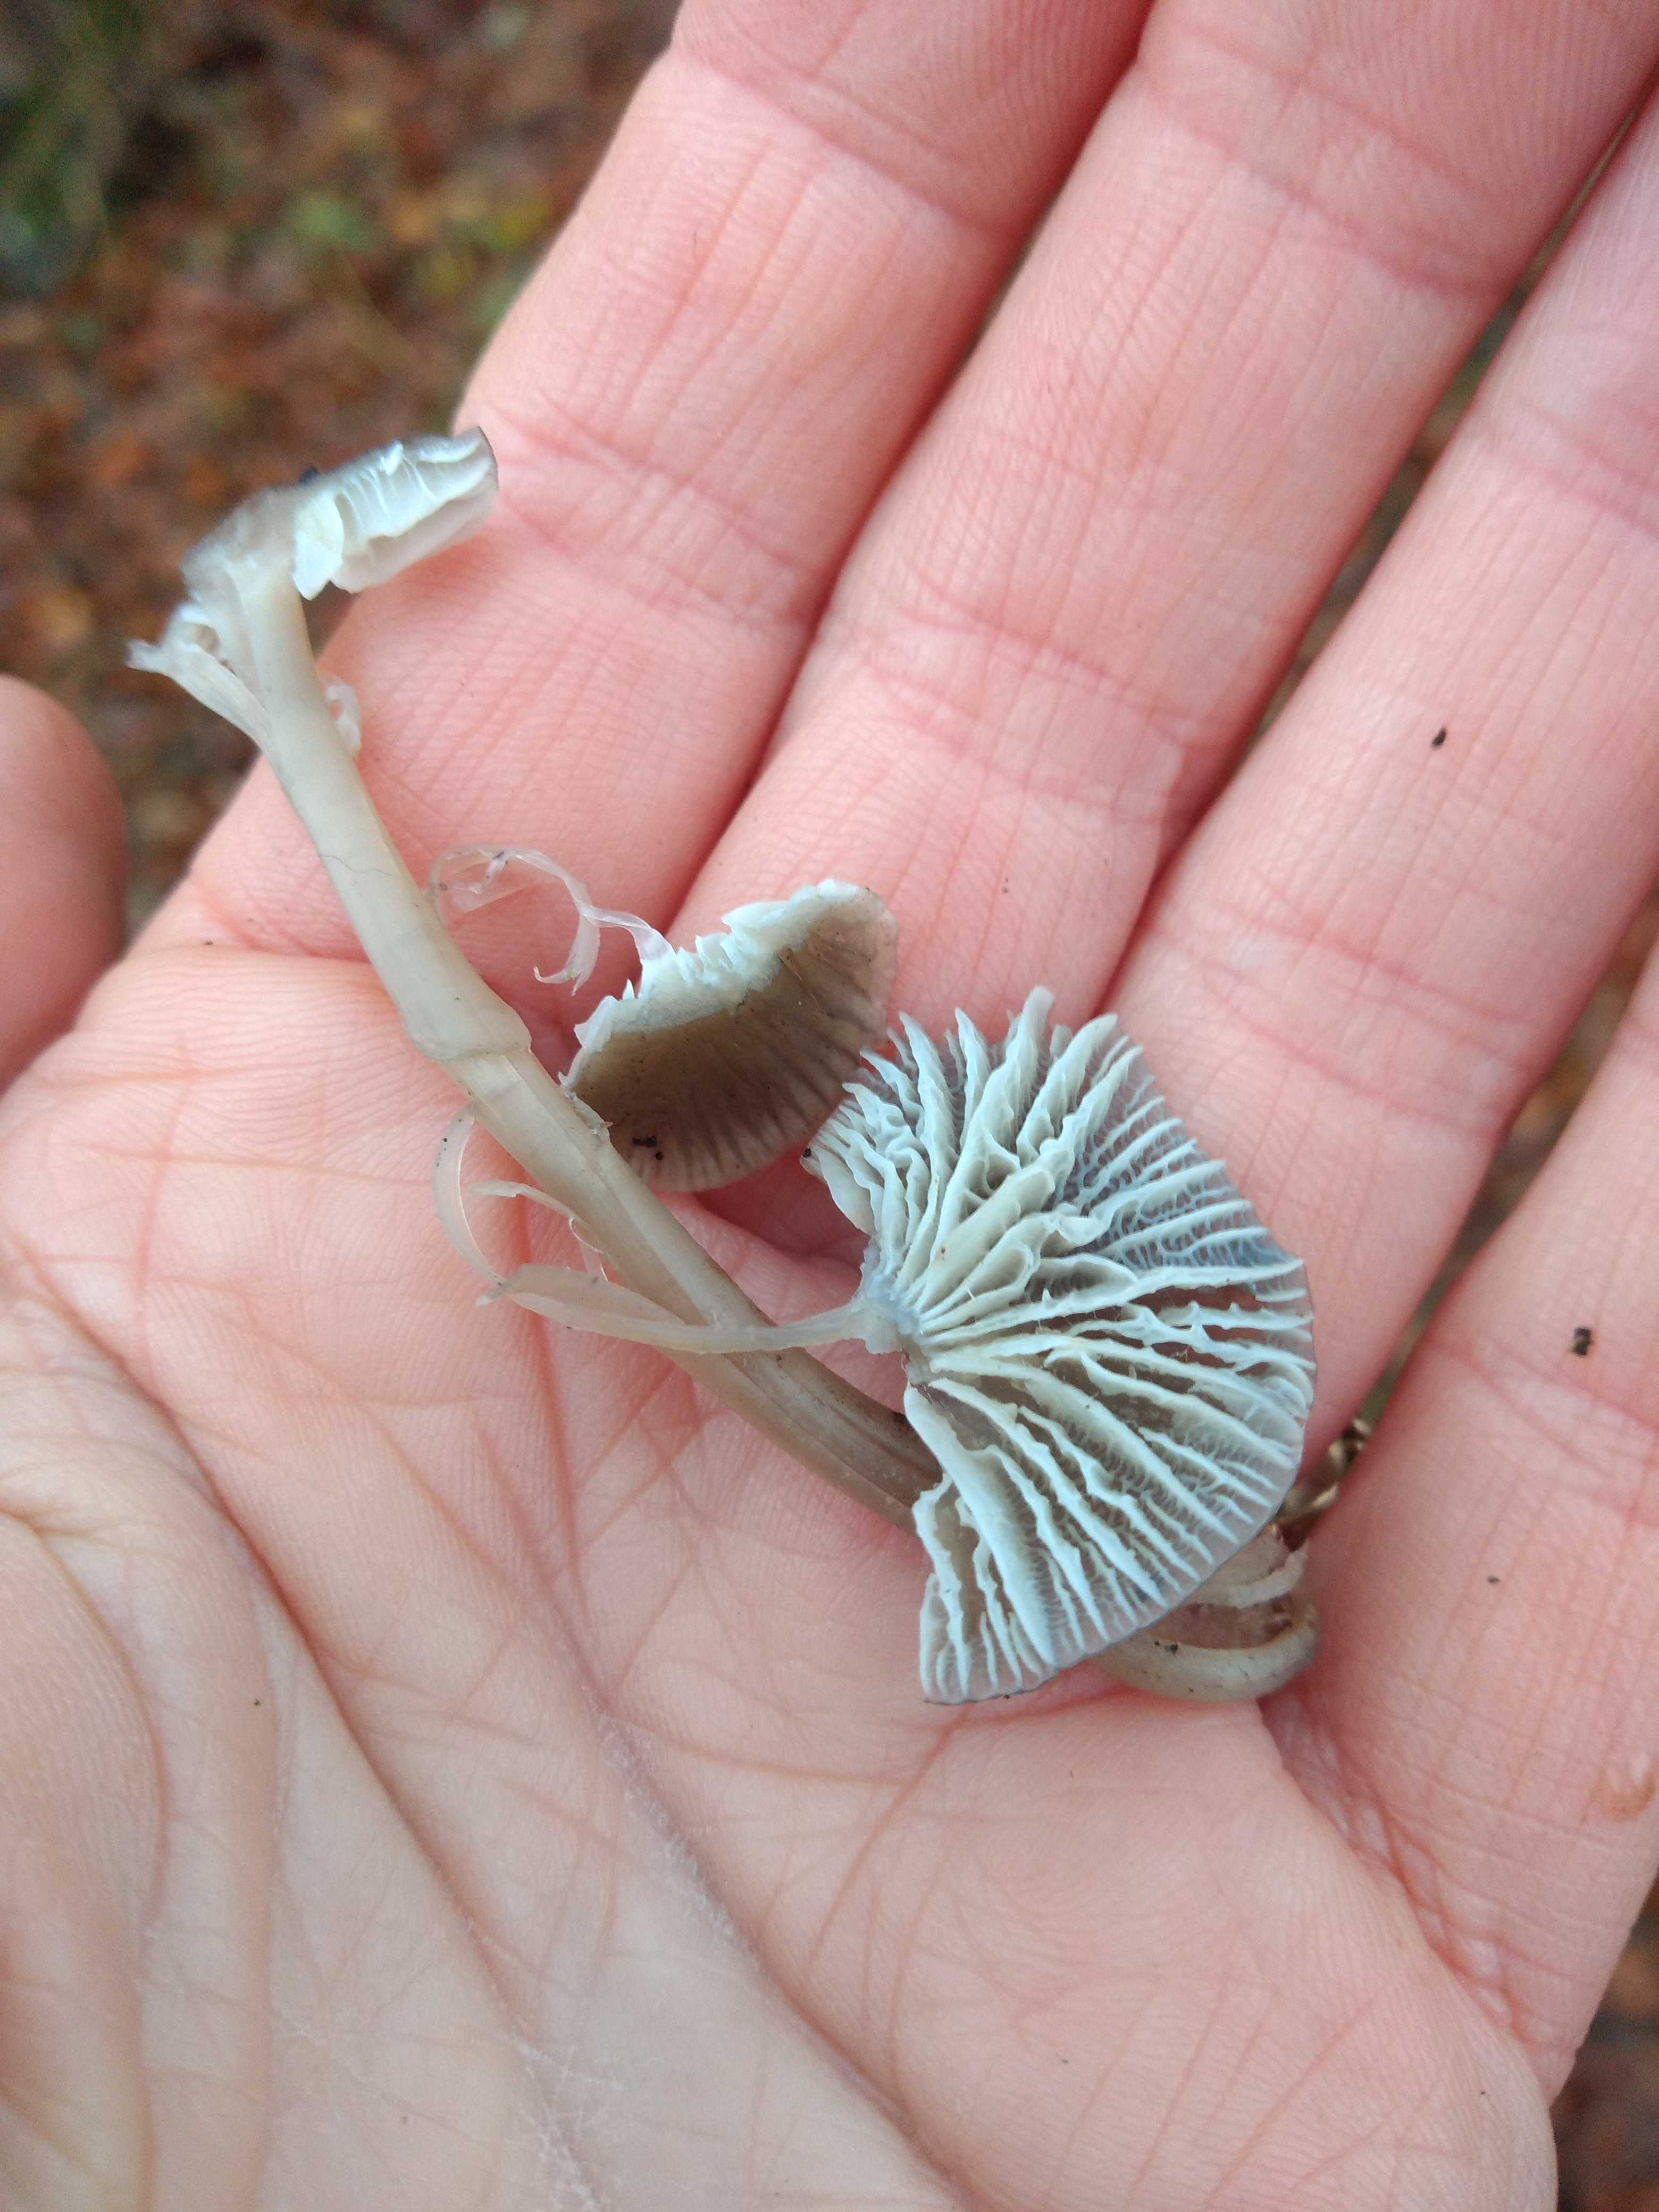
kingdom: Fungi
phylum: Basidiomycota
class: Agaricomycetes
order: Agaricales
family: Mycenaceae
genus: Mycena
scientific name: Mycena
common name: huesvamp
